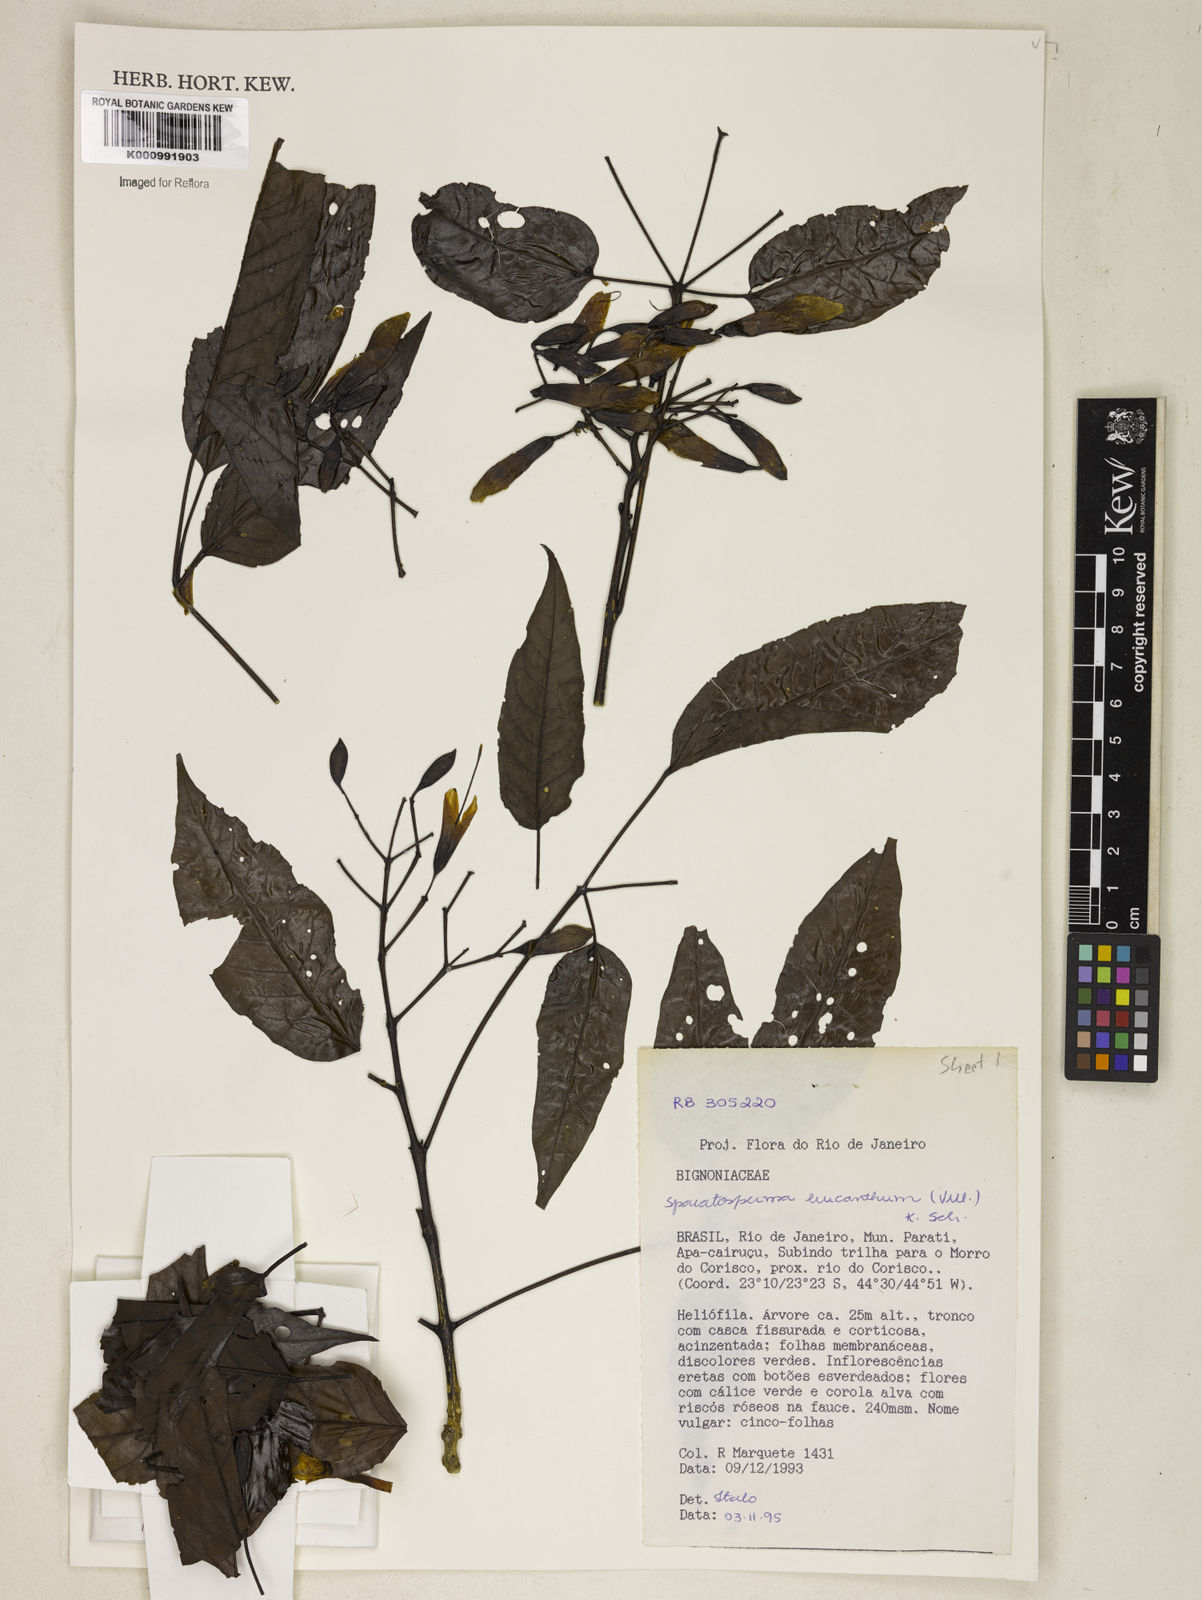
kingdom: Plantae
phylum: Tracheophyta
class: Magnoliopsida
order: Lamiales
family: Bignoniaceae
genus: Sparattosperma
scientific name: Sparattosperma leucanthum
